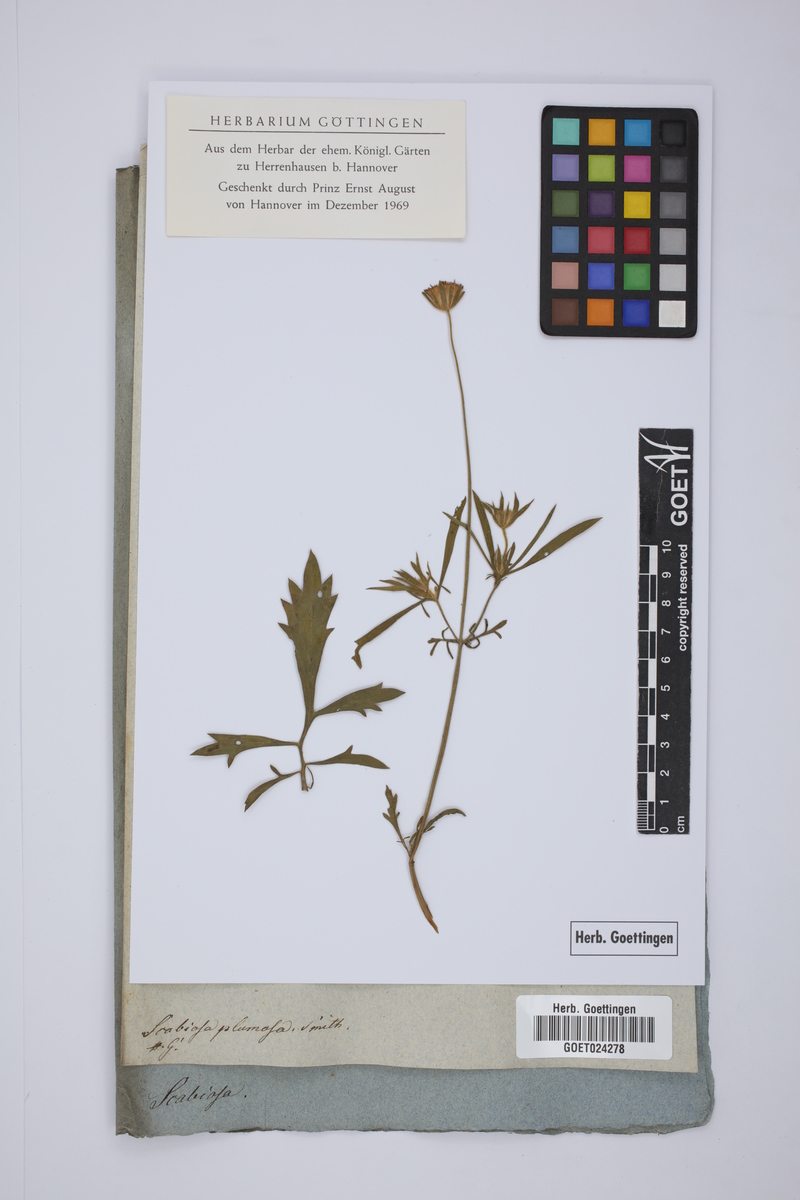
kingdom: Plantae
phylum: Tracheophyta
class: Magnoliopsida
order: Dipsacales
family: Caprifoliaceae
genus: Pterocephalus
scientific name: Pterocephalus plumosus
